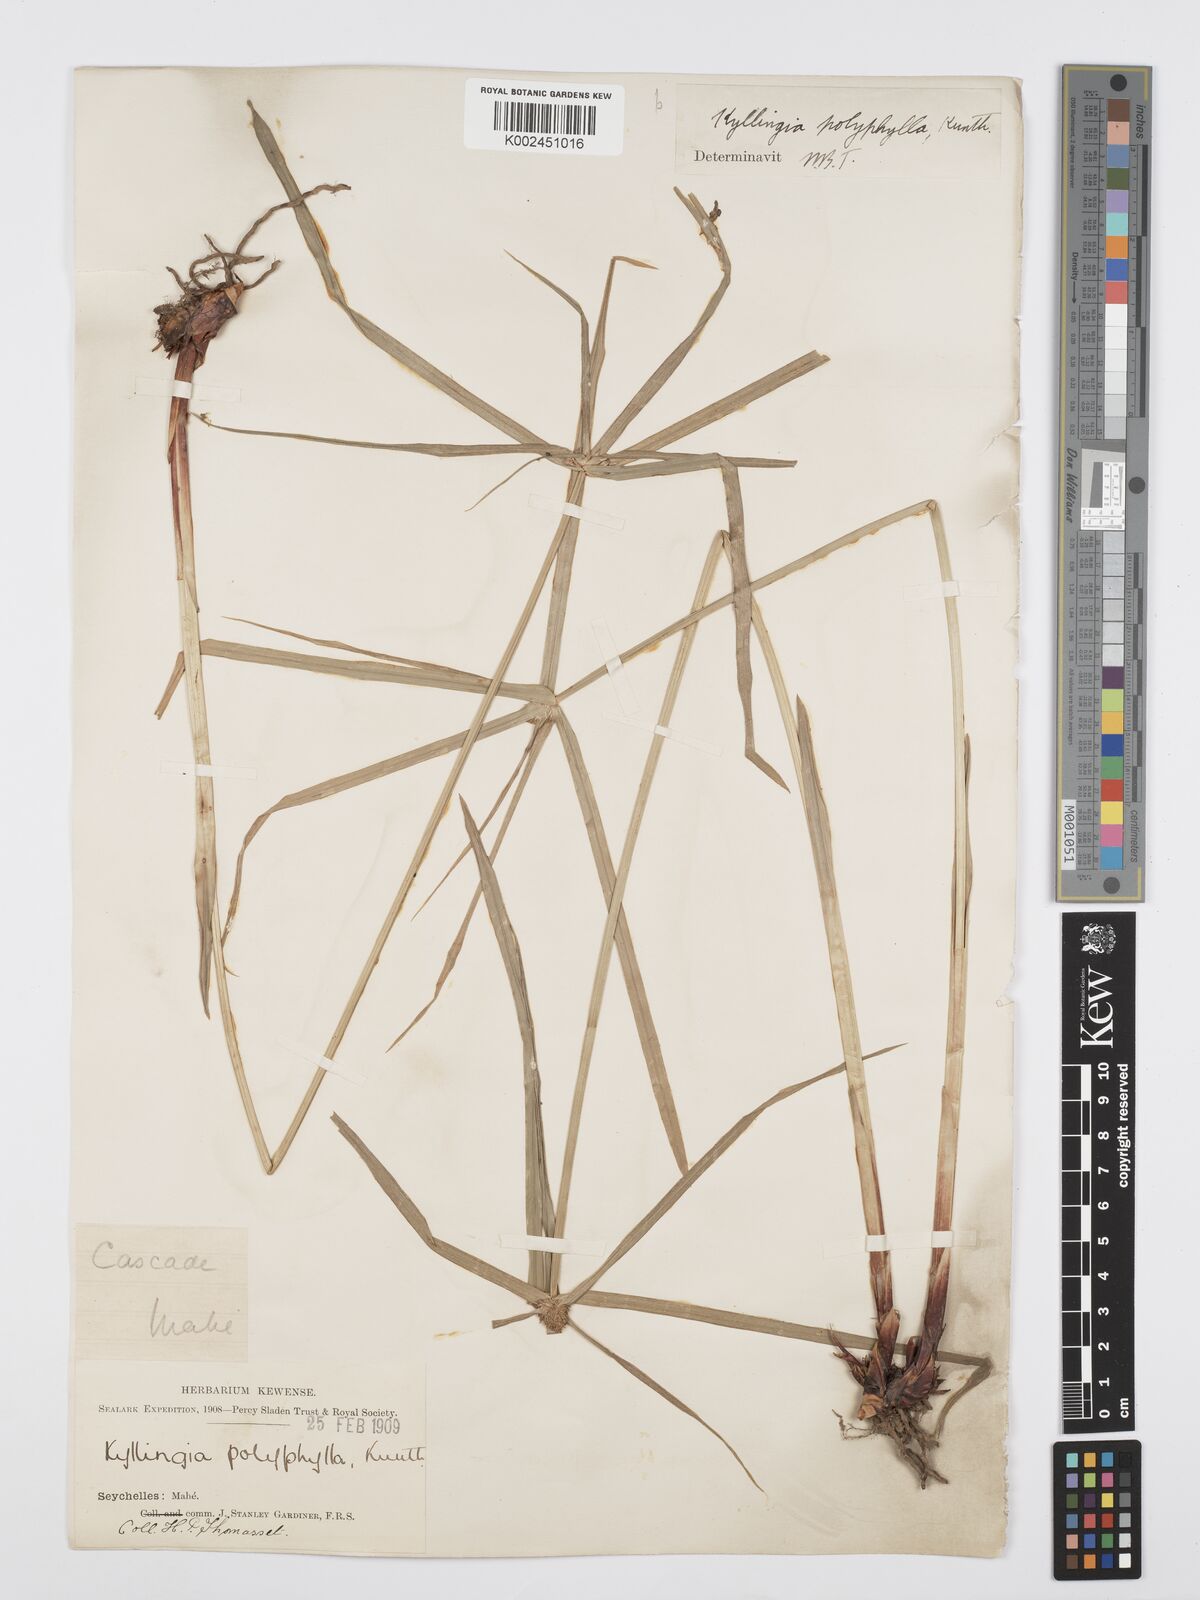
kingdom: Plantae
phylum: Tracheophyta
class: Liliopsida
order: Poales
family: Cyperaceae
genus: Cyperus
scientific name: Cyperus bulbosus
